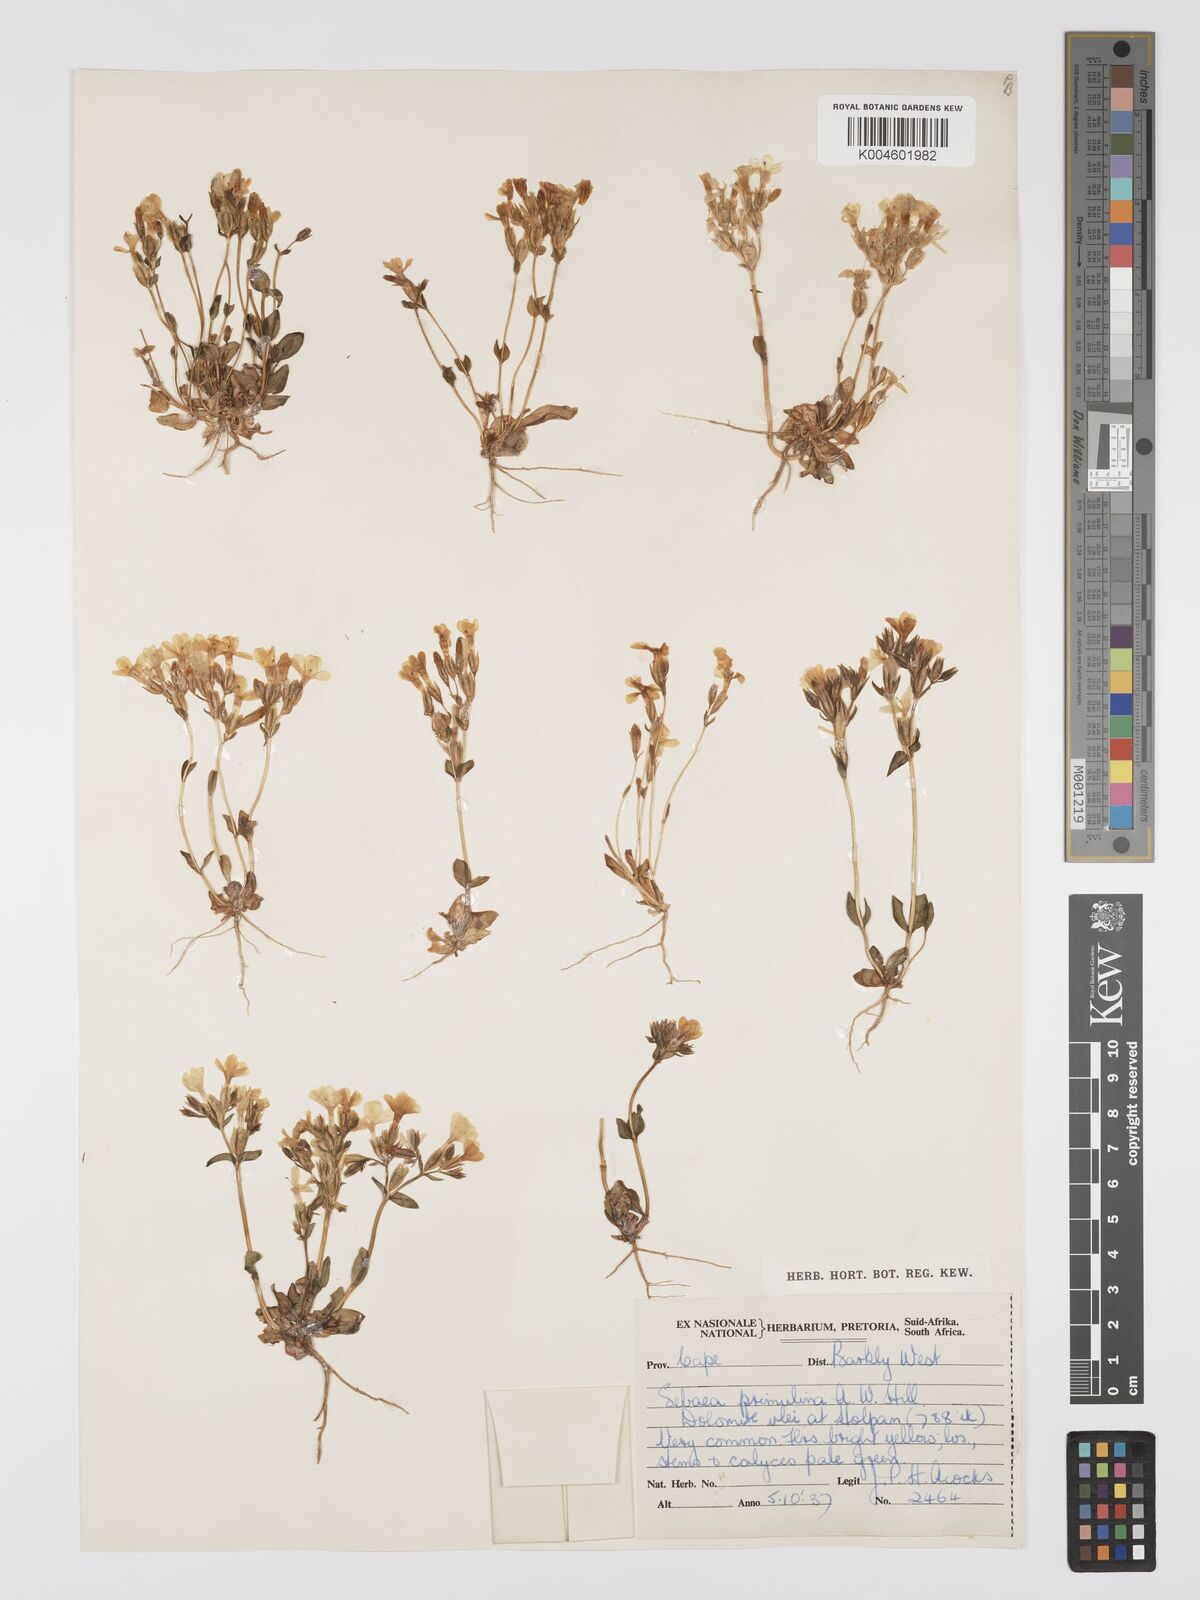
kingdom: Plantae
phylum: Tracheophyta
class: Magnoliopsida
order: Gentianales
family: Gentianaceae
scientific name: Gentianaceae
